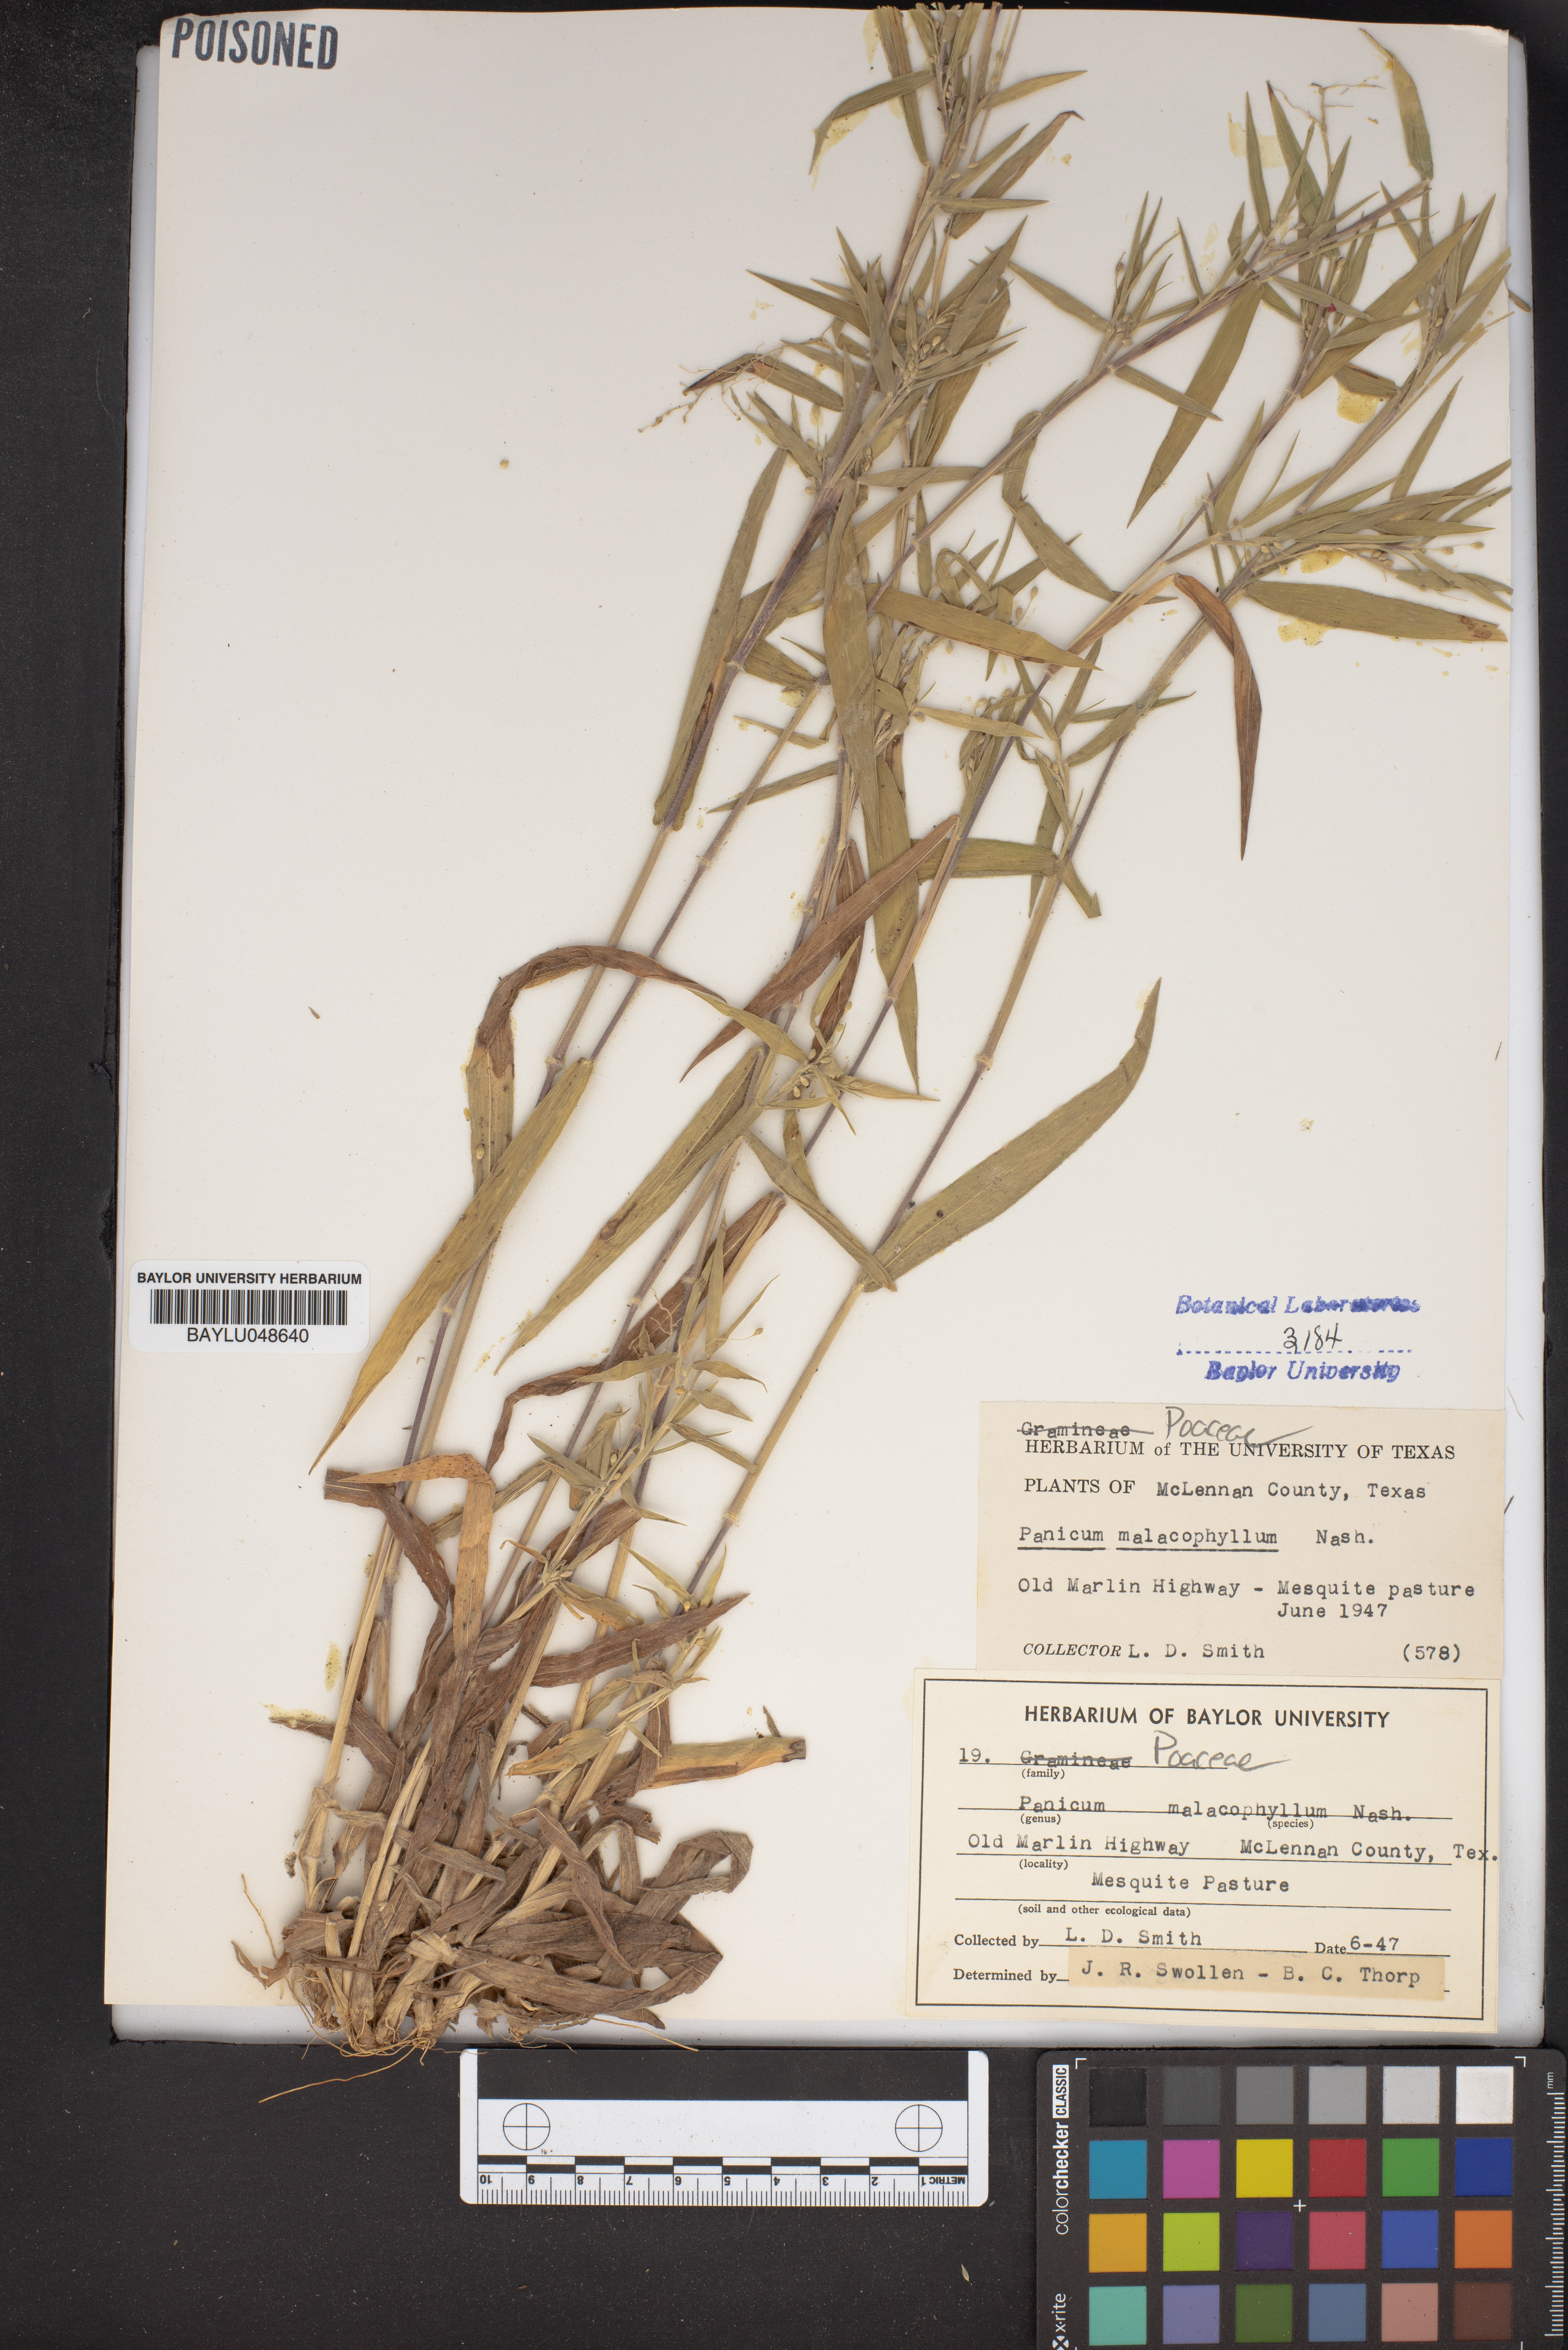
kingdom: Plantae
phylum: Tracheophyta
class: Liliopsida
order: Poales
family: Poaceae
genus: Dichanthelium
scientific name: Dichanthelium malacophyllum
